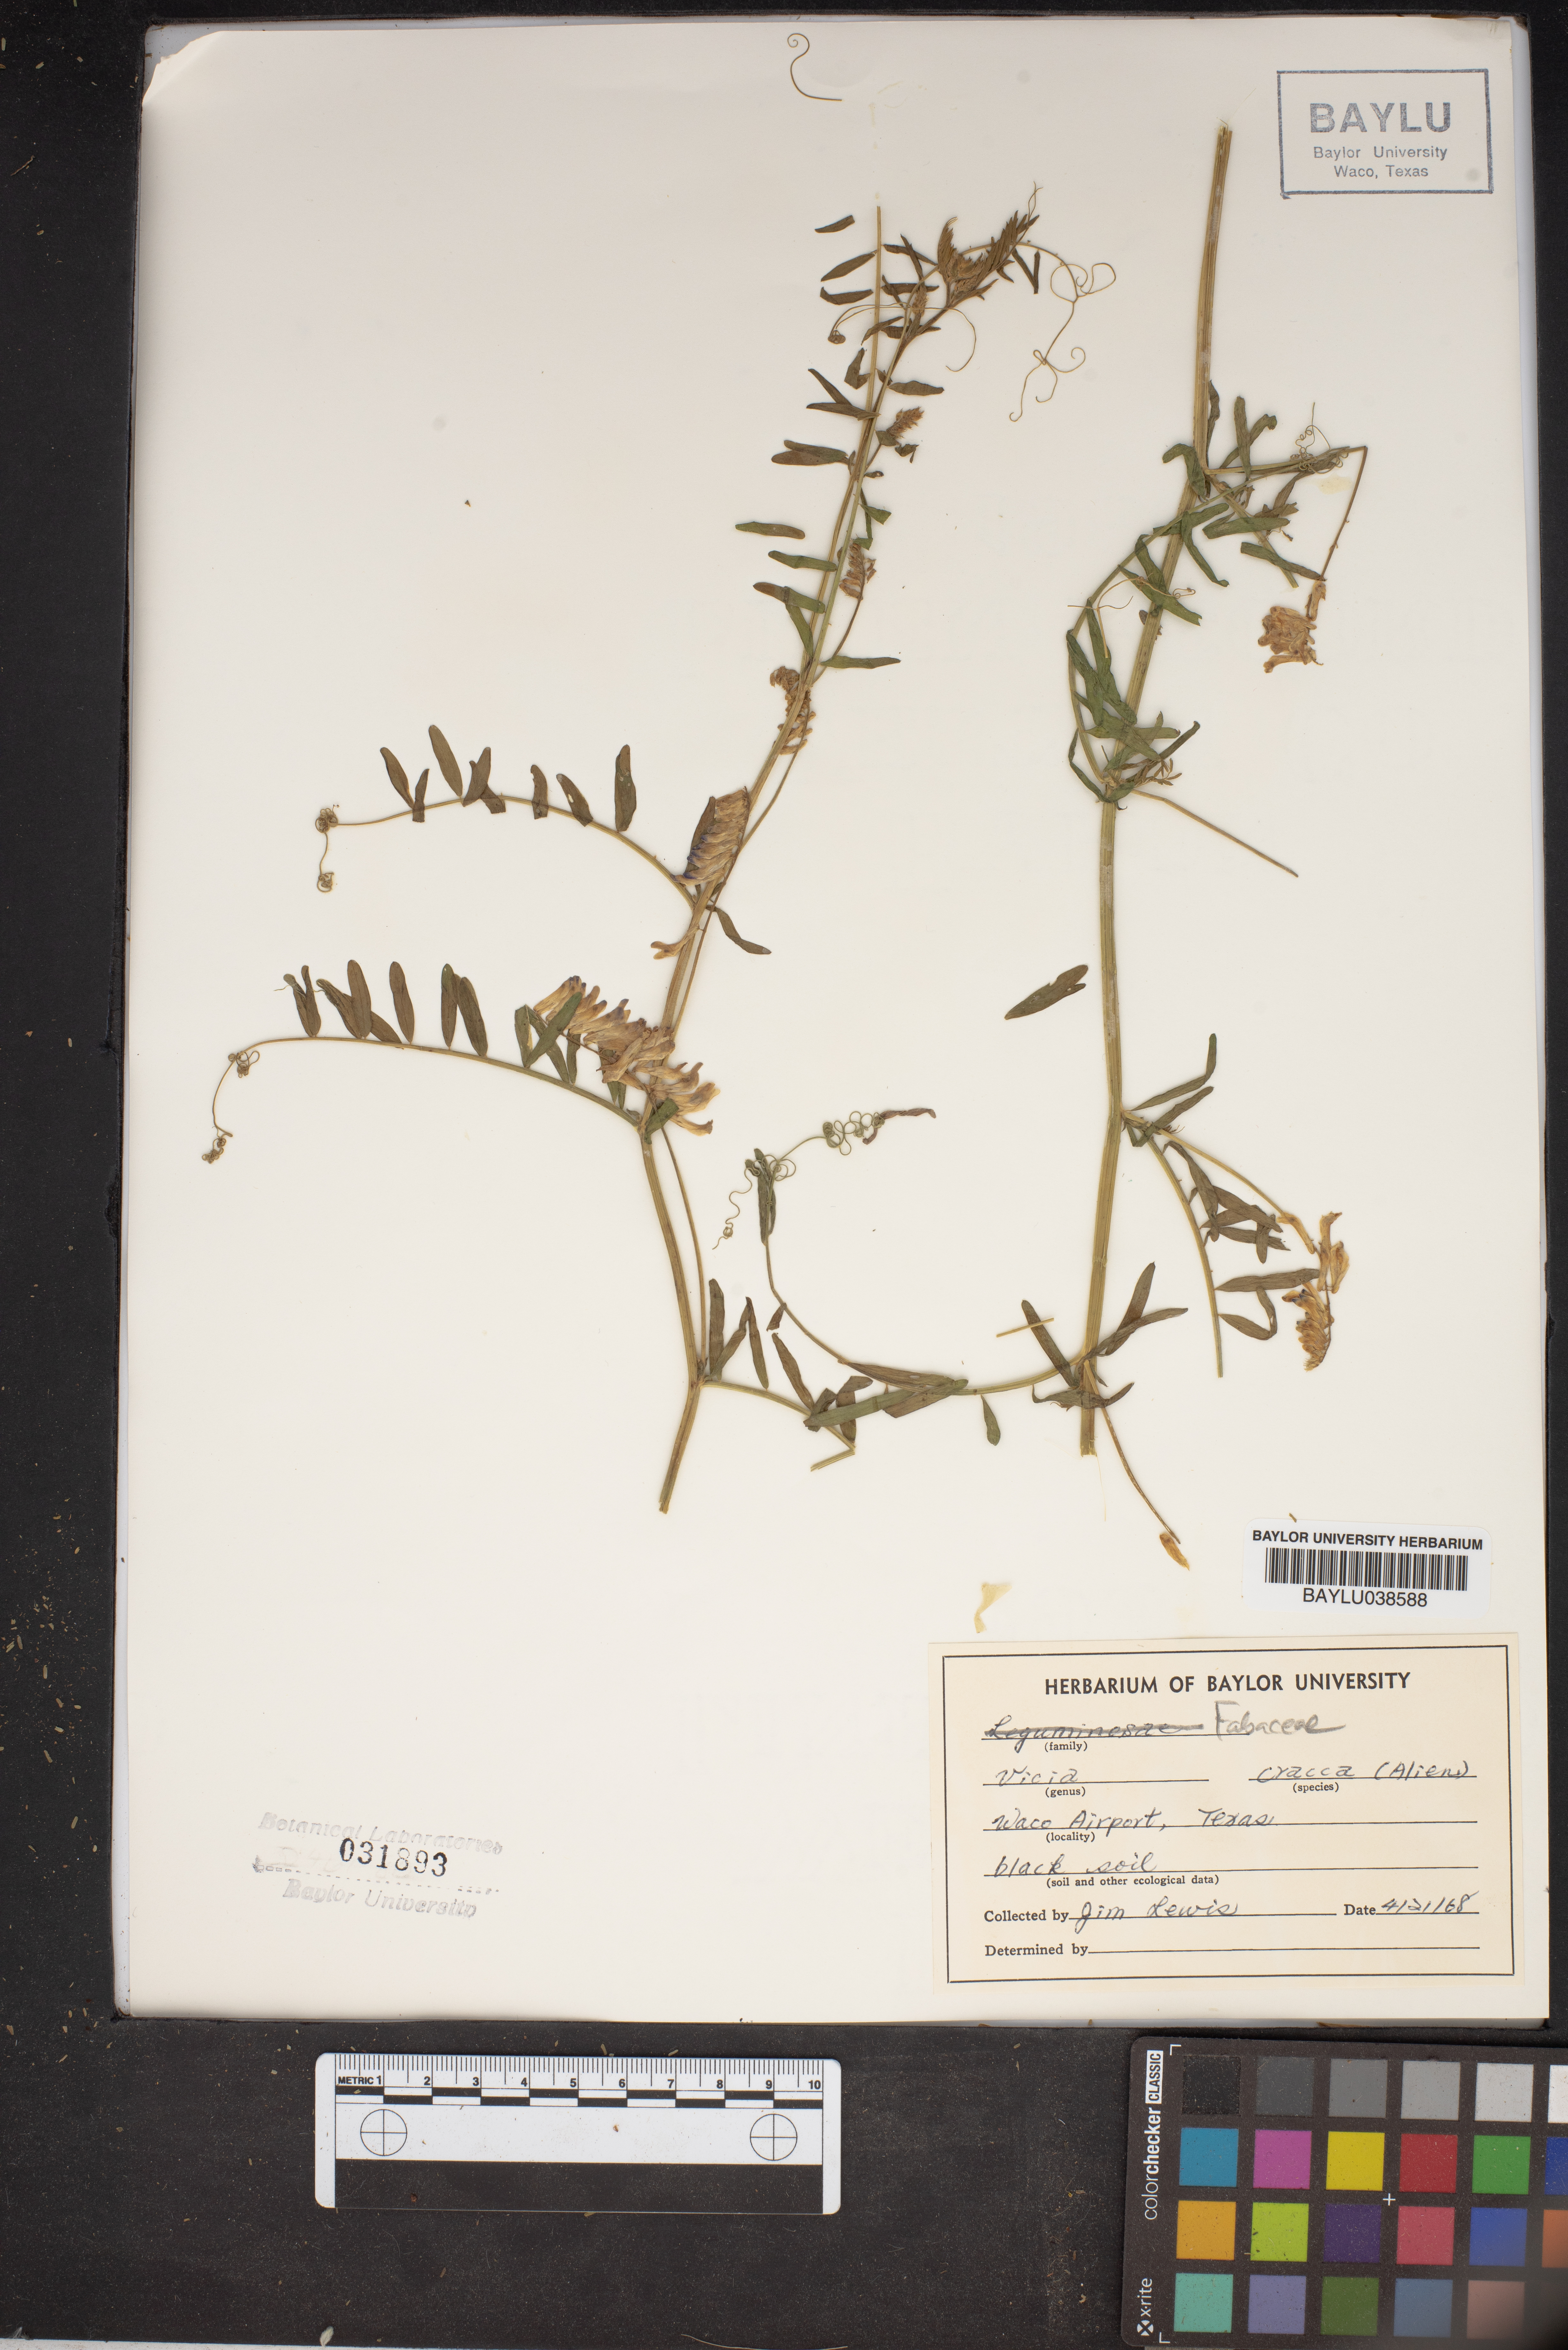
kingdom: Plantae
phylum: Tracheophyta
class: Magnoliopsida
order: Fabales
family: Fabaceae
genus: Vicia
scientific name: Vicia cracca
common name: Bird vetch
